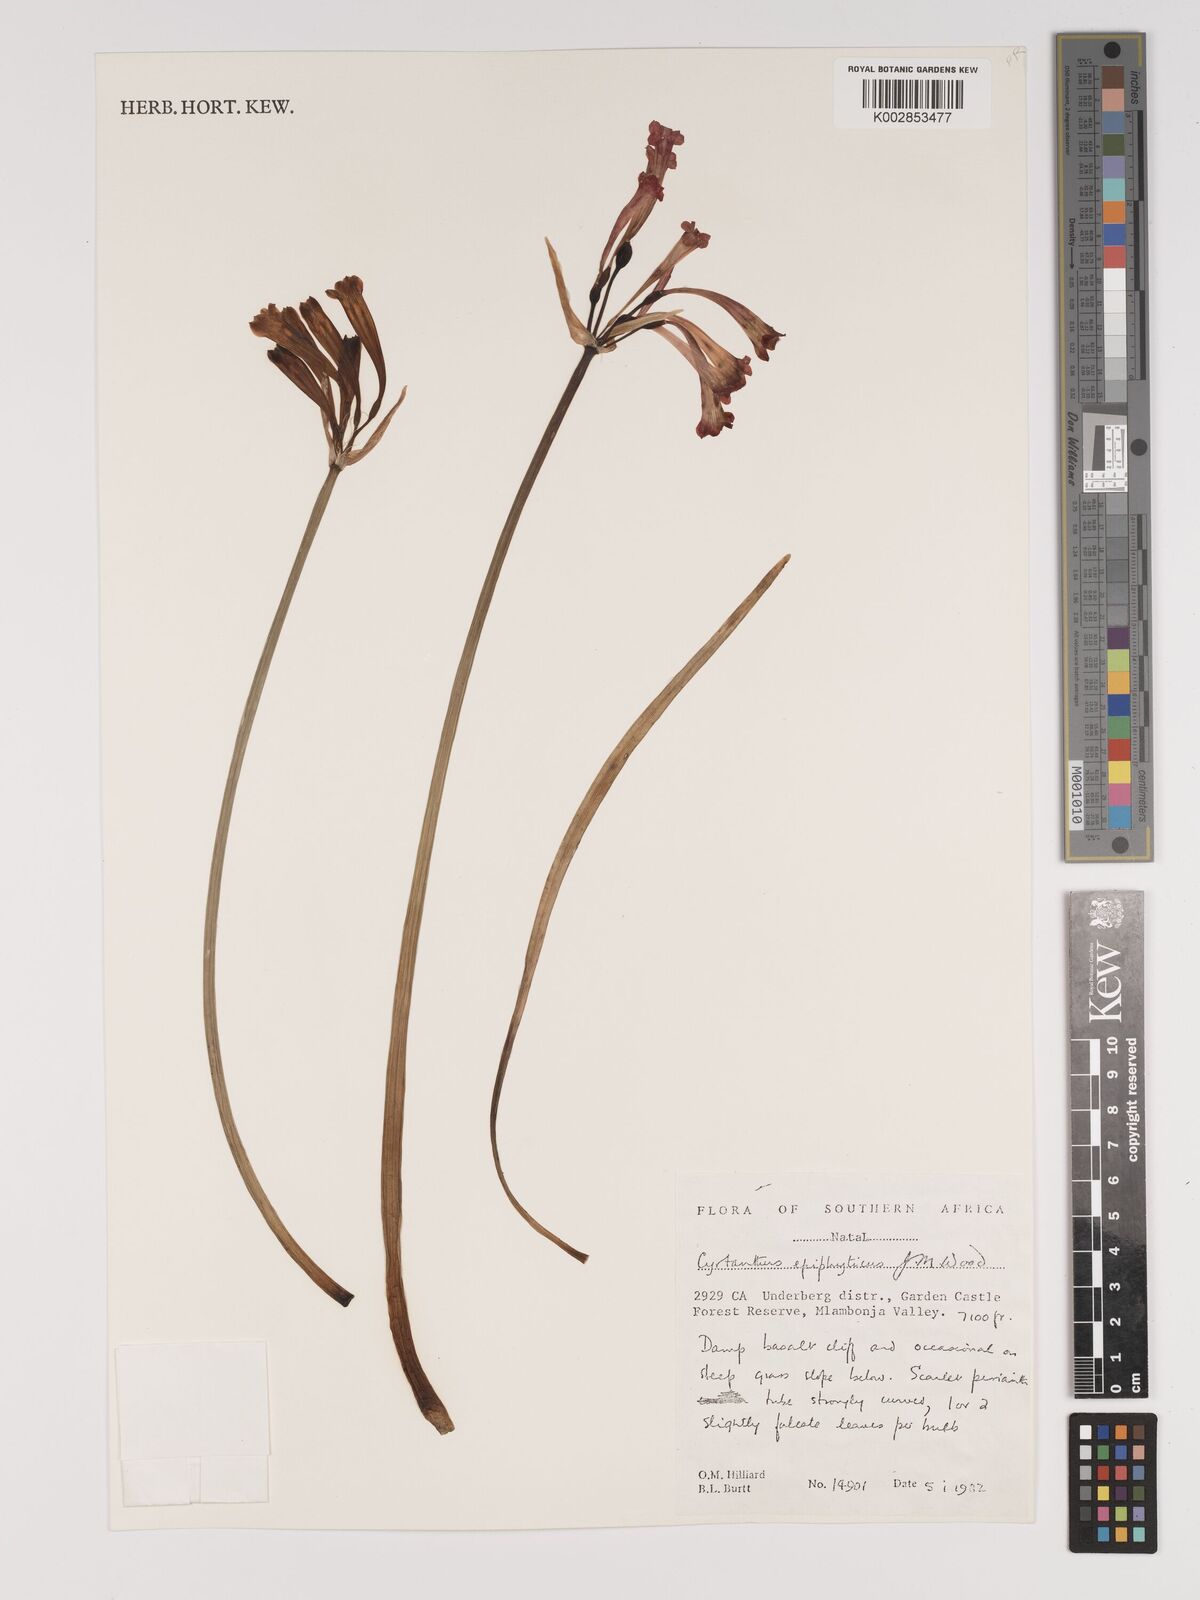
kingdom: Plantae
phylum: Tracheophyta
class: Liliopsida
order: Asparagales
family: Amaryllidaceae
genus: Cyrtanthus
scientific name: Cyrtanthus epiphyticus
